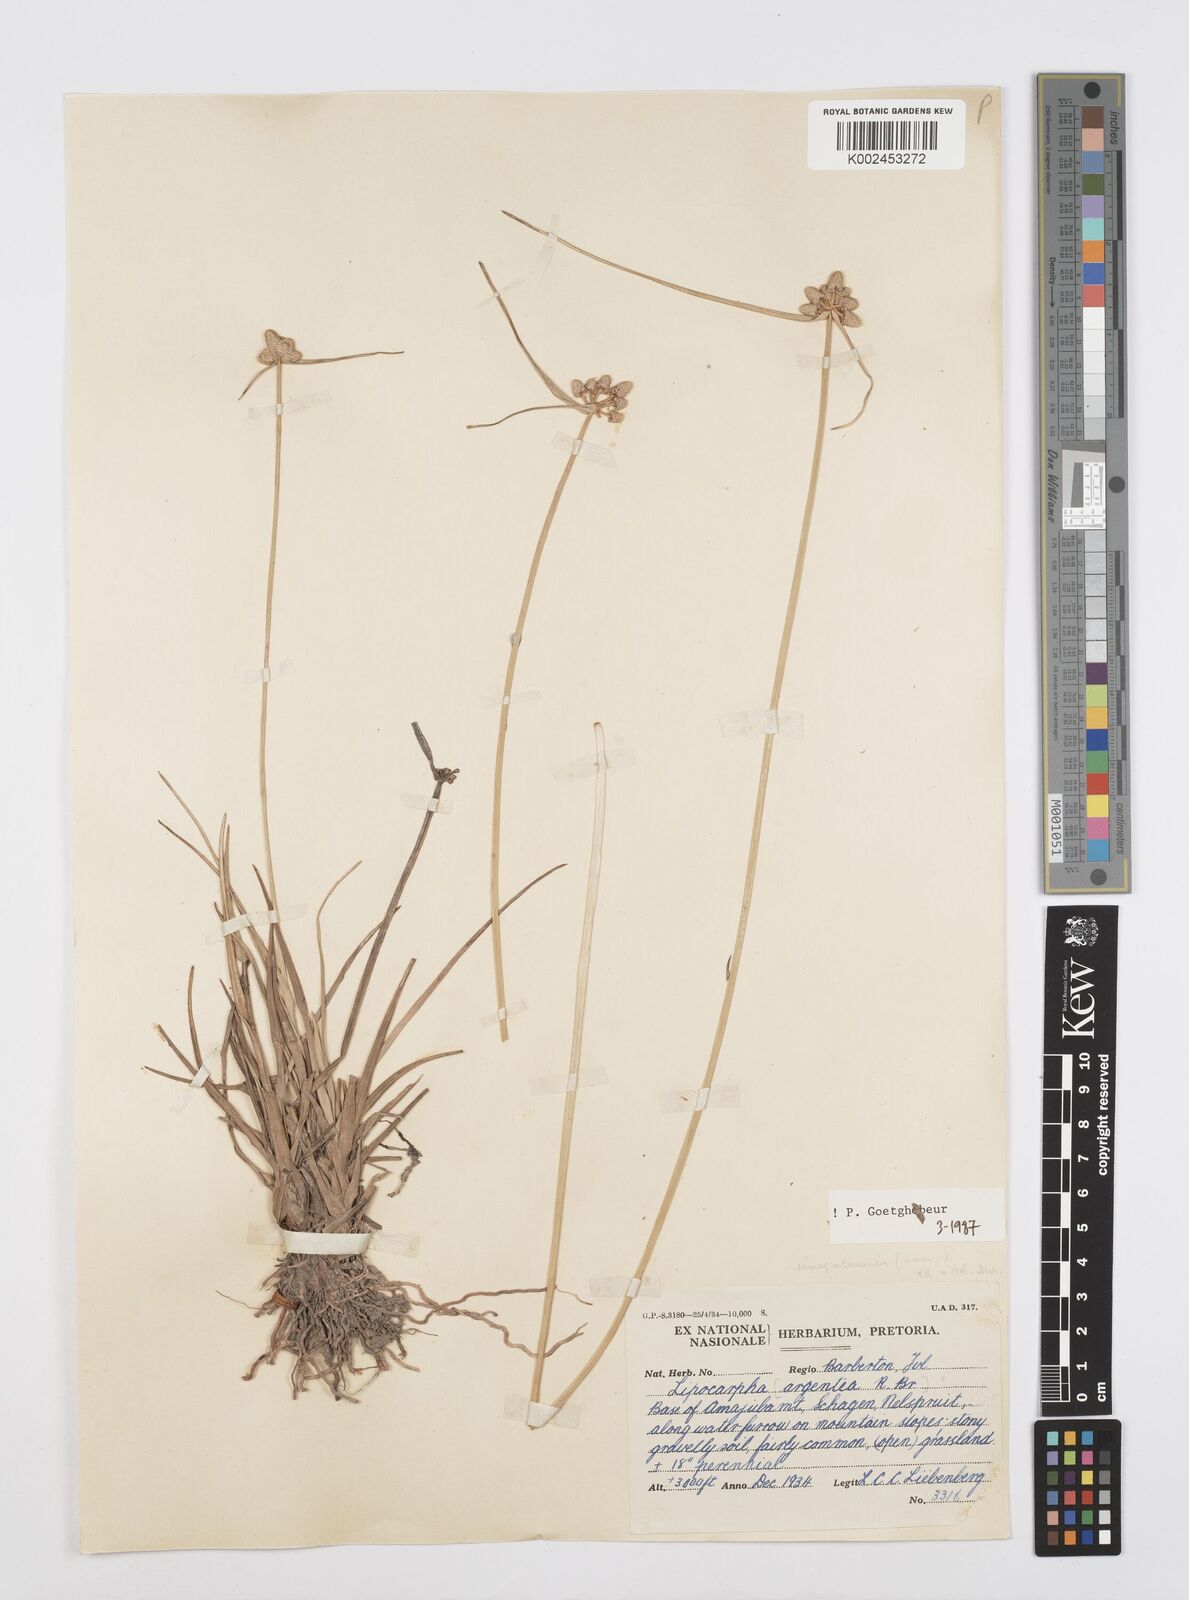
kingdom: Plantae
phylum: Tracheophyta
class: Liliopsida
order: Poales
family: Cyperaceae
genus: Cyperus
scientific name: Cyperus albescens
